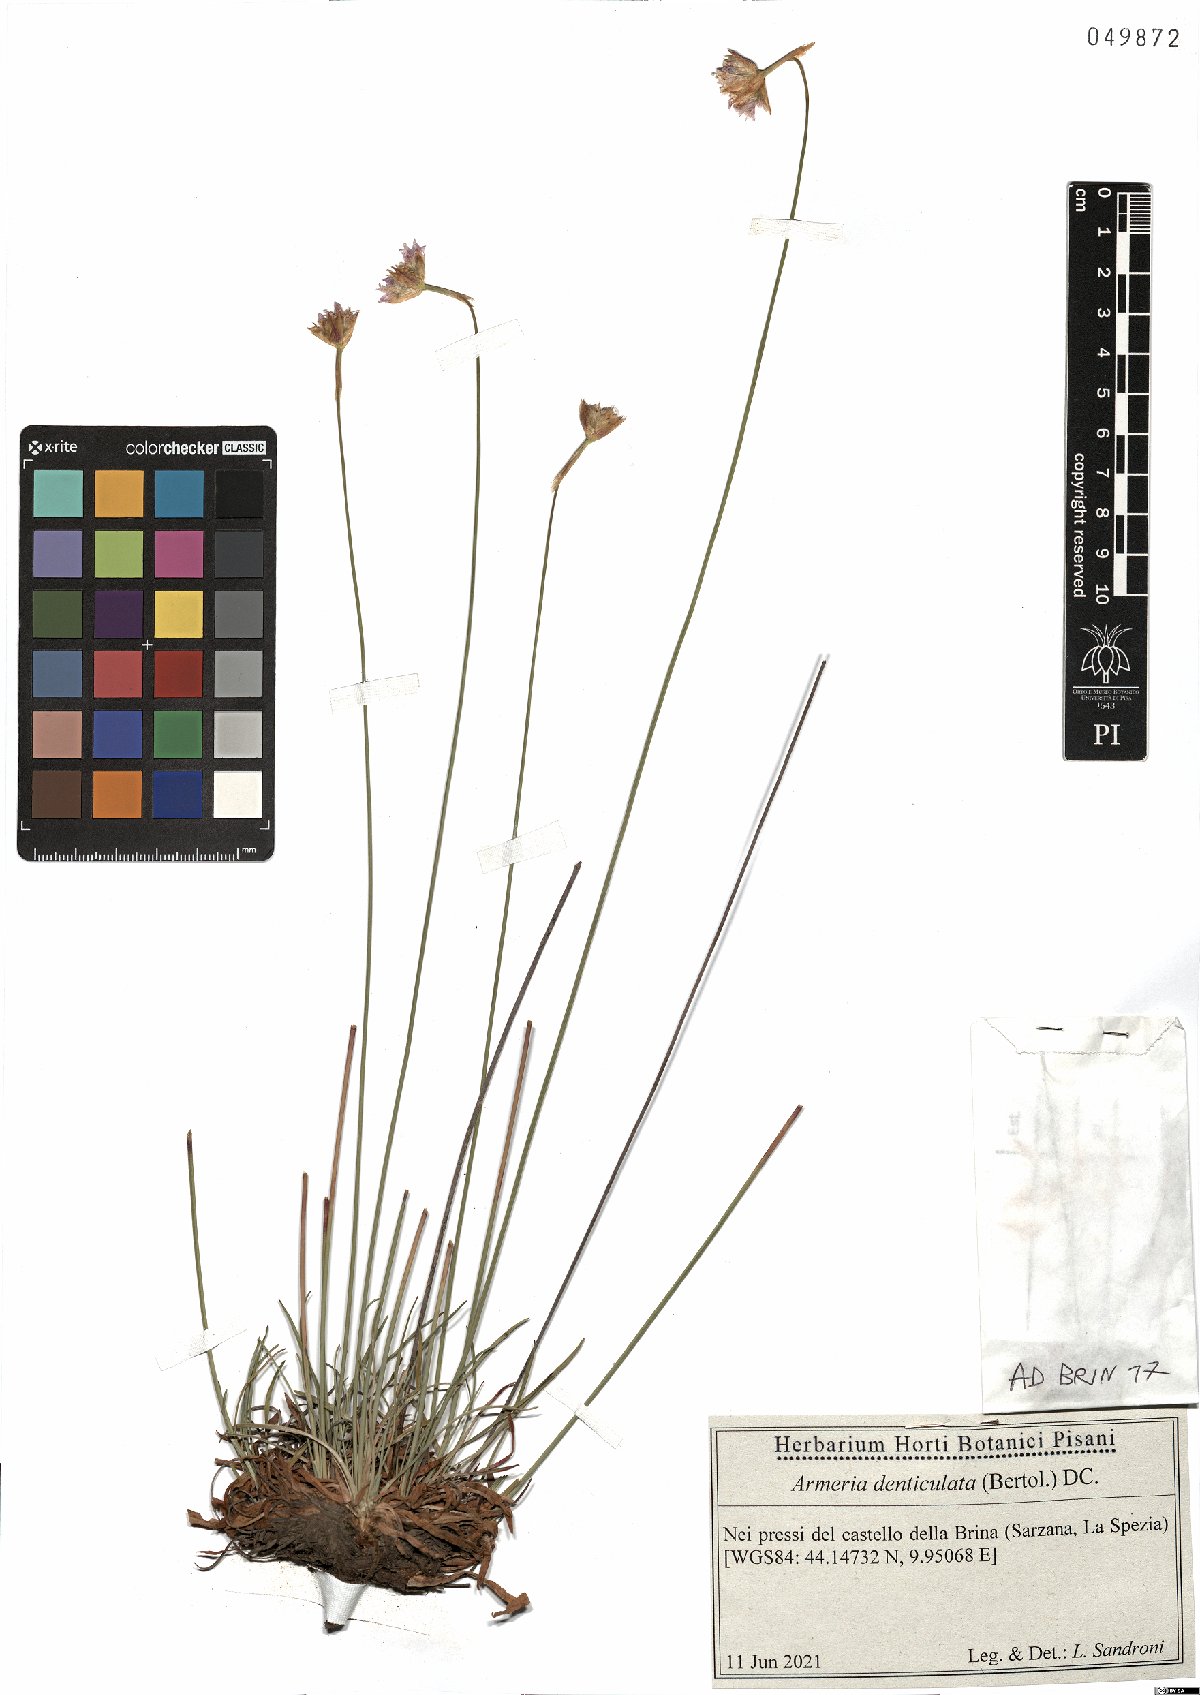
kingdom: Plantae
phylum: Tracheophyta
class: Magnoliopsida
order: Caryophyllales
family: Plumbaginaceae
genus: Armeria
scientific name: Armeria denticulata
